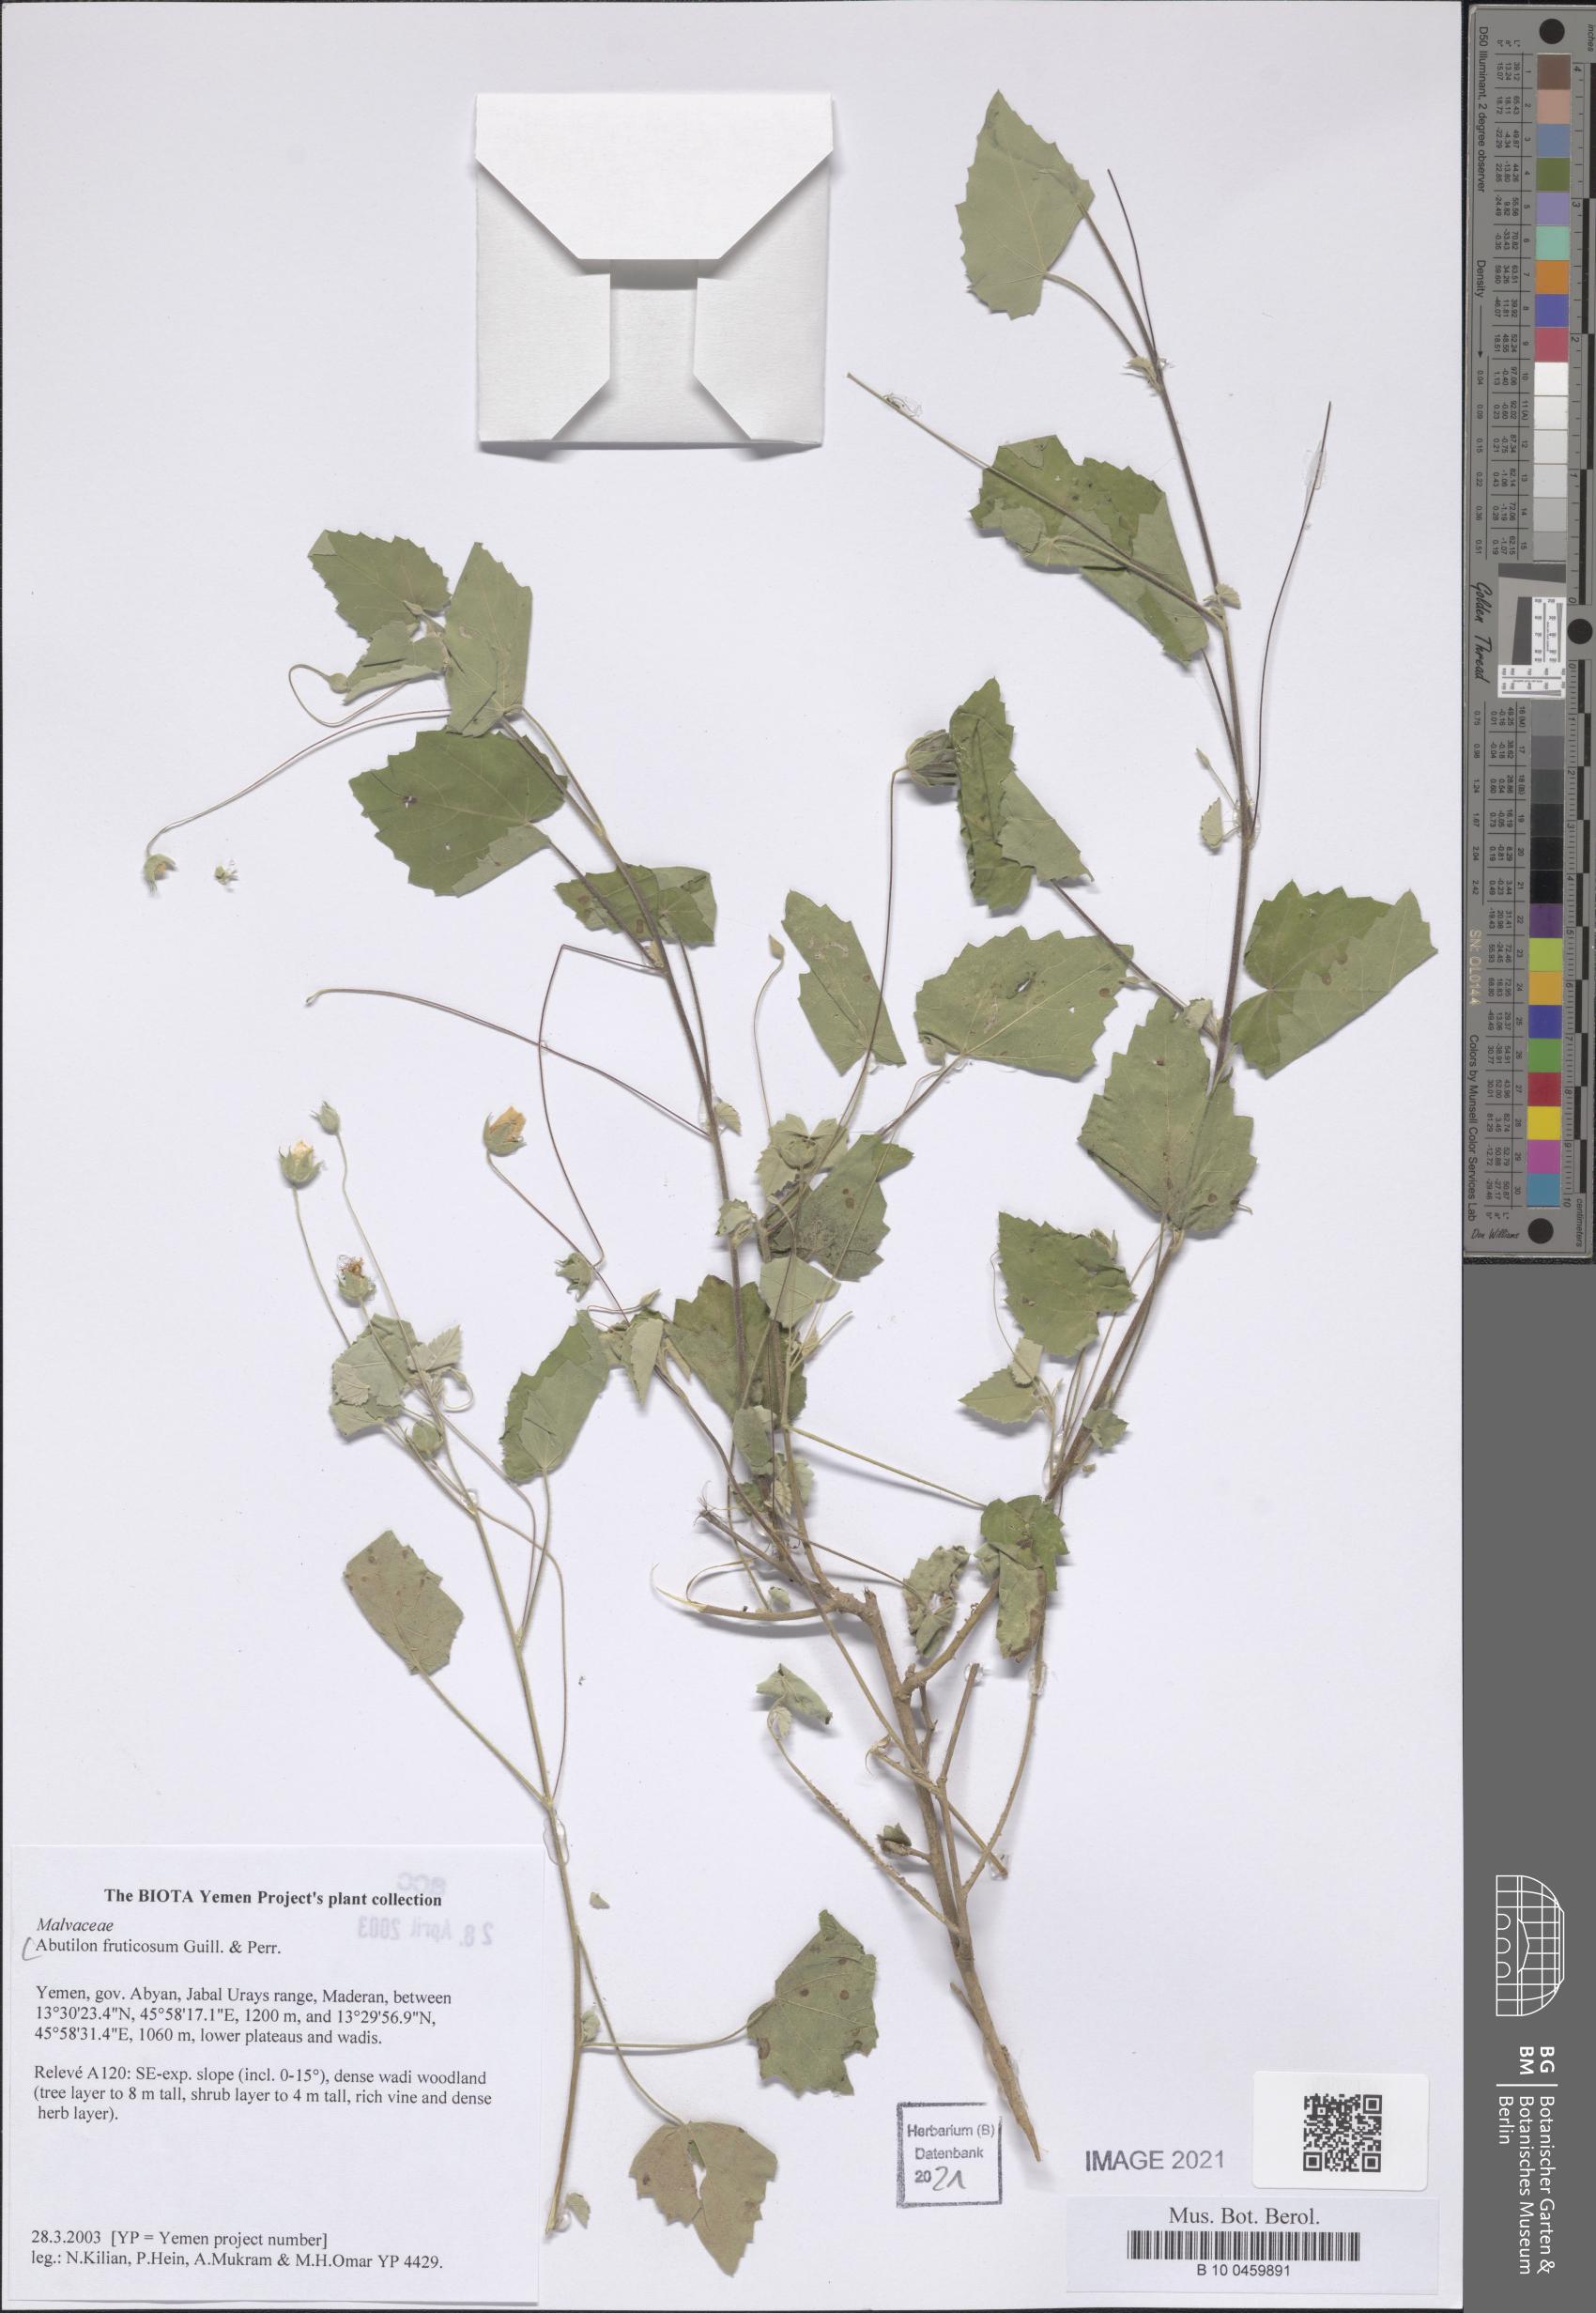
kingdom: Plantae
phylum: Tracheophyta
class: Magnoliopsida
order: Malvales
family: Malvaceae
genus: Abutilon
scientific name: Abutilon fruticosum
